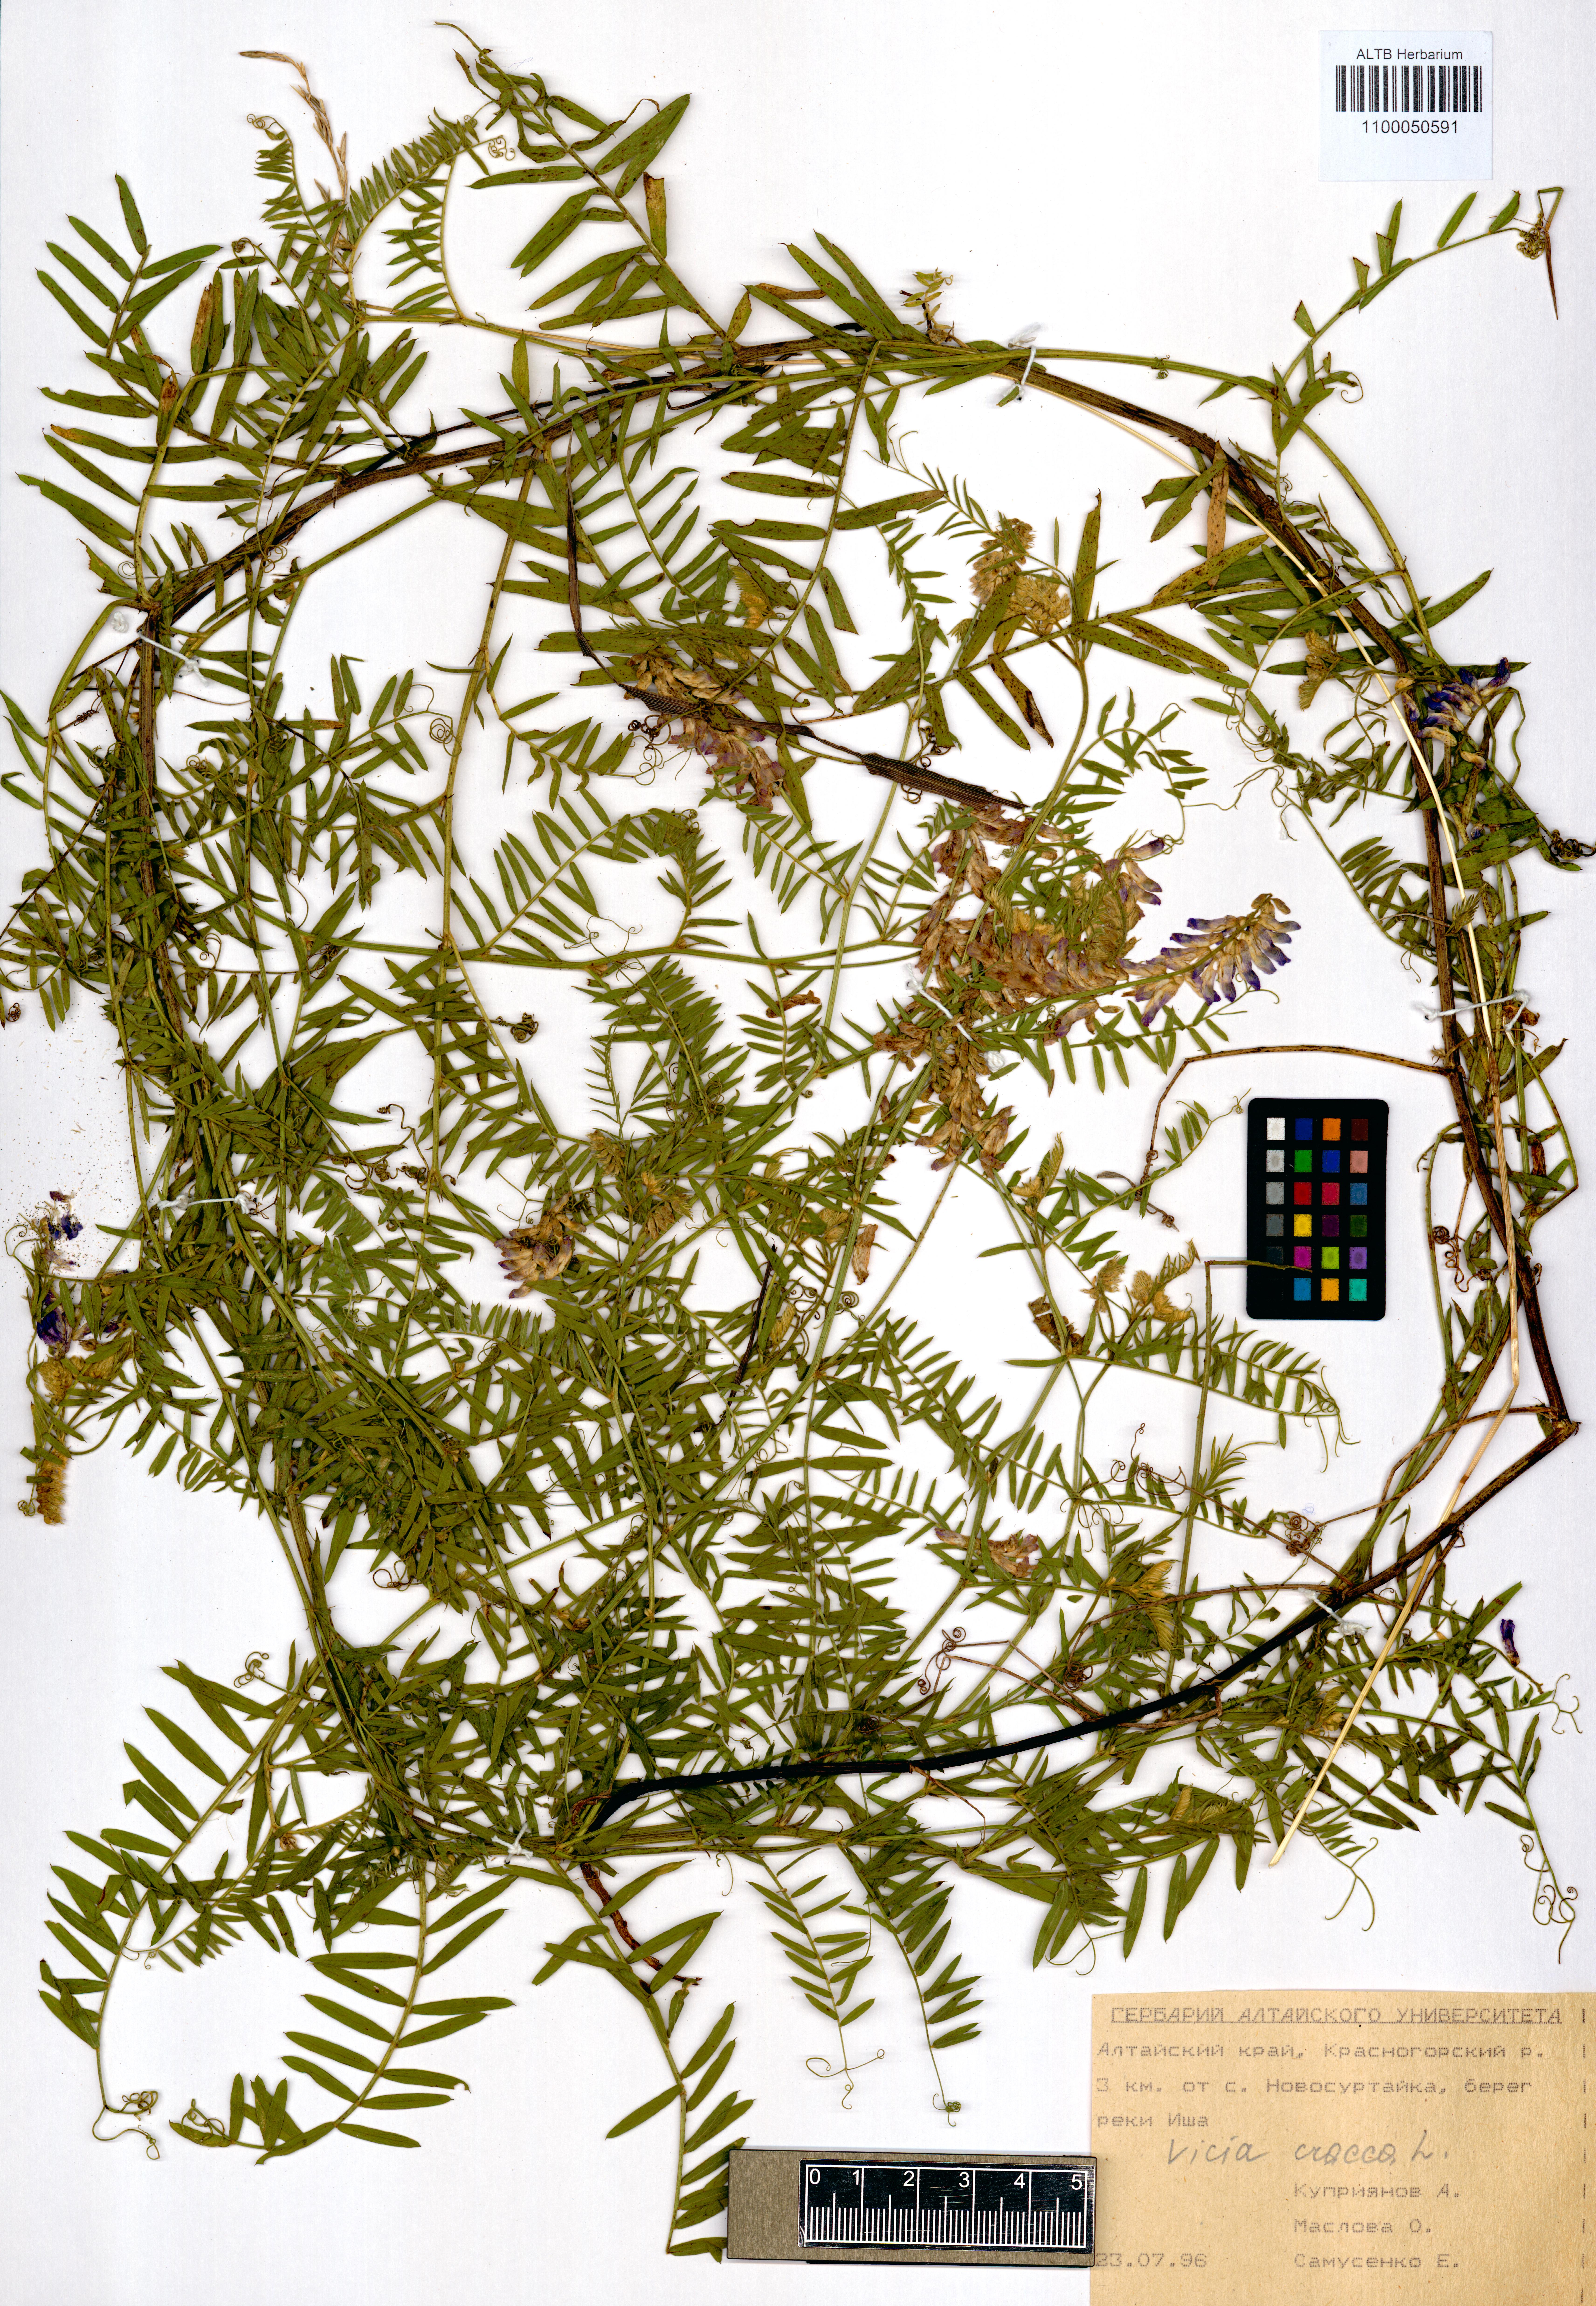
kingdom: Plantae
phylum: Tracheophyta
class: Magnoliopsida
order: Fabales
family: Fabaceae
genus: Vicia
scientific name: Vicia cracca
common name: Bird vetch
